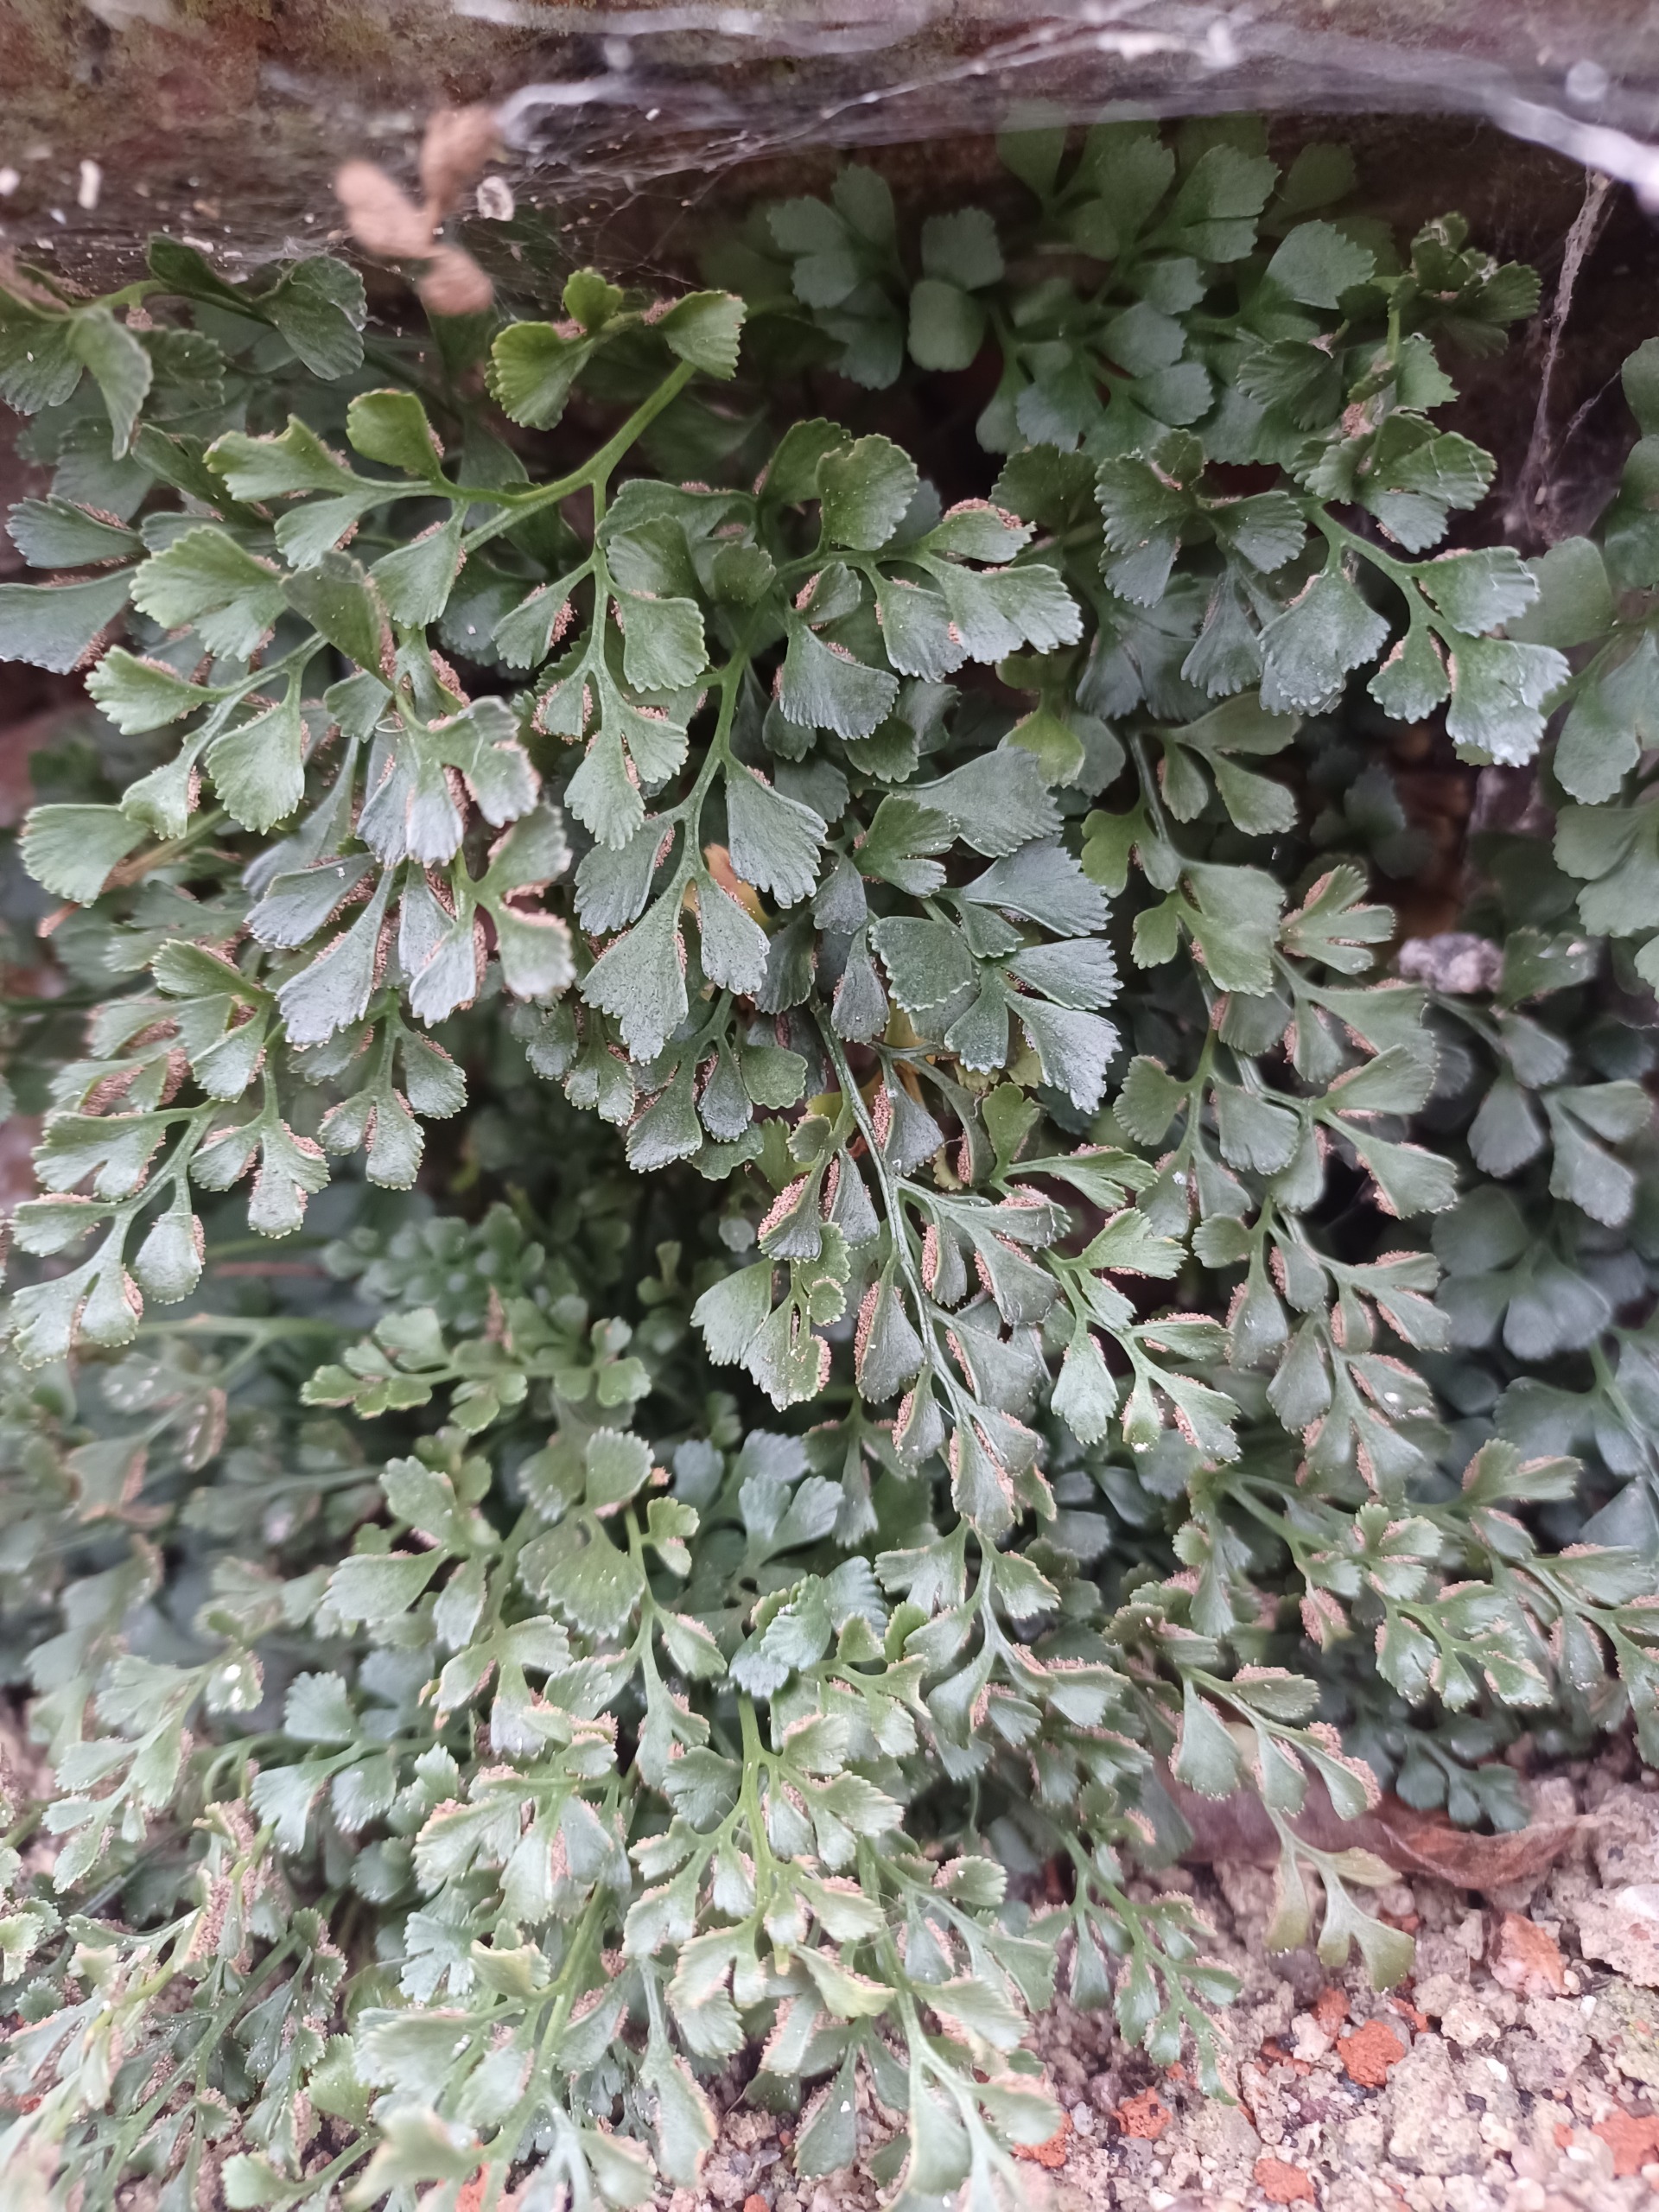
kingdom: Plantae
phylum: Tracheophyta
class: Polypodiopsida
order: Polypodiales
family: Aspleniaceae
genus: Asplenium
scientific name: Asplenium ruta-muraria
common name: Murrude
